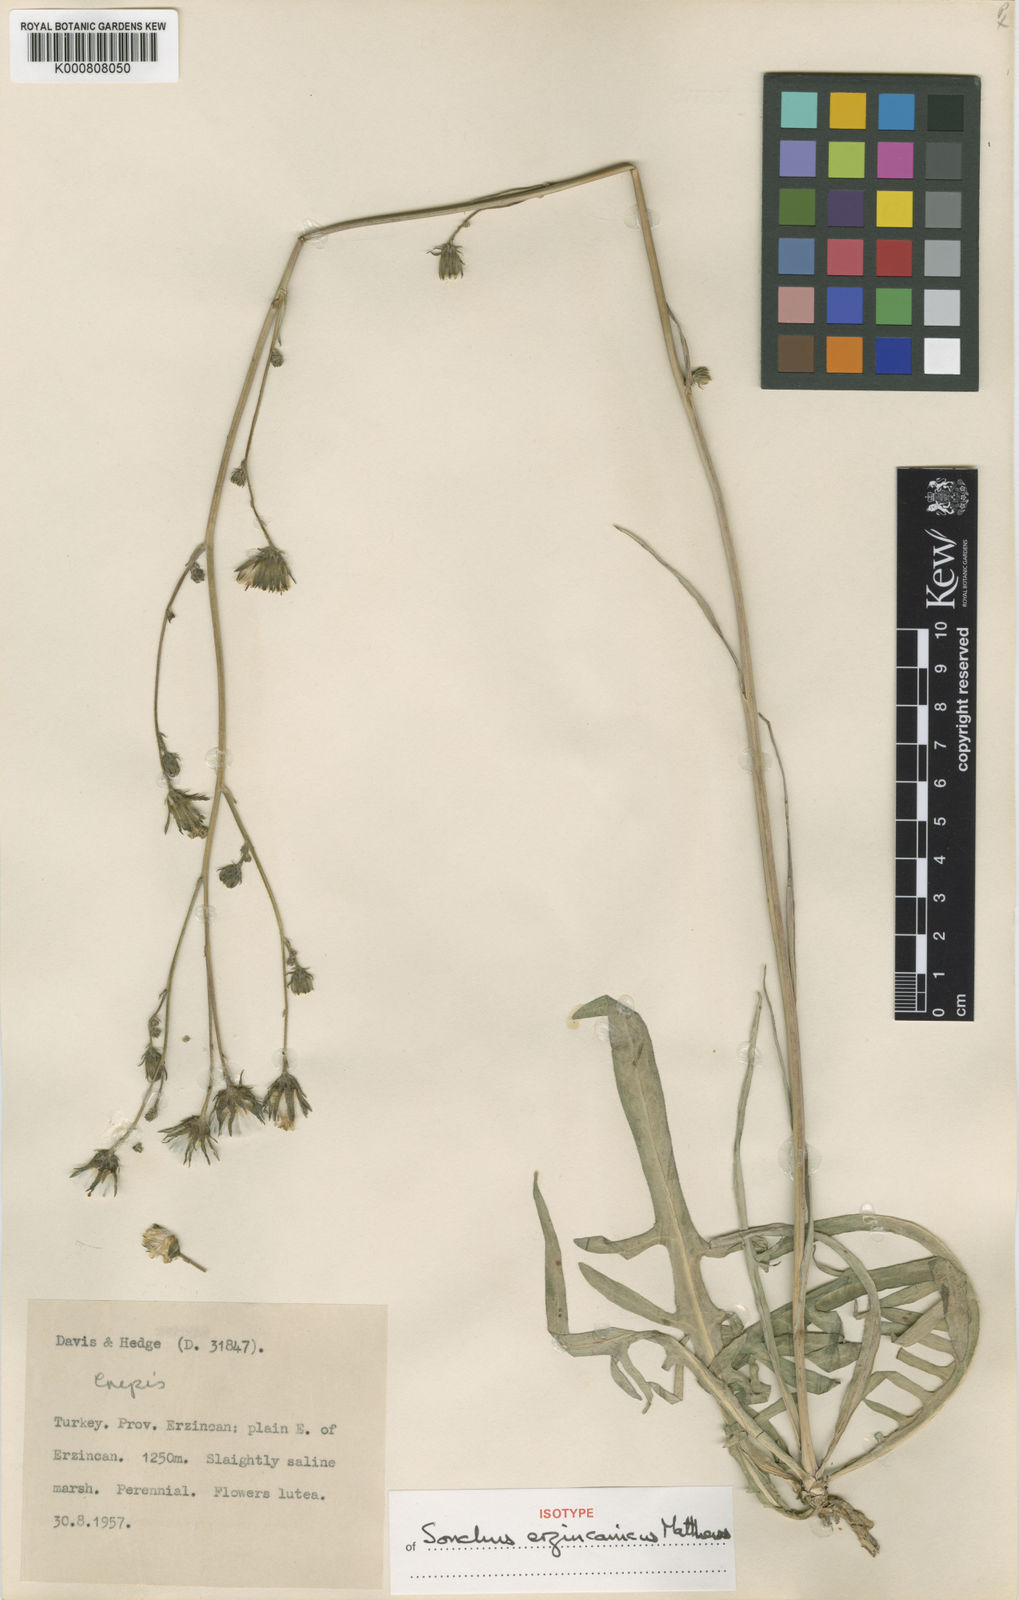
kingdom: Plantae
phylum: Tracheophyta
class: Magnoliopsida
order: Asterales
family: Asteraceae
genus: Sonchus
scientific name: Sonchus erzincanicus
